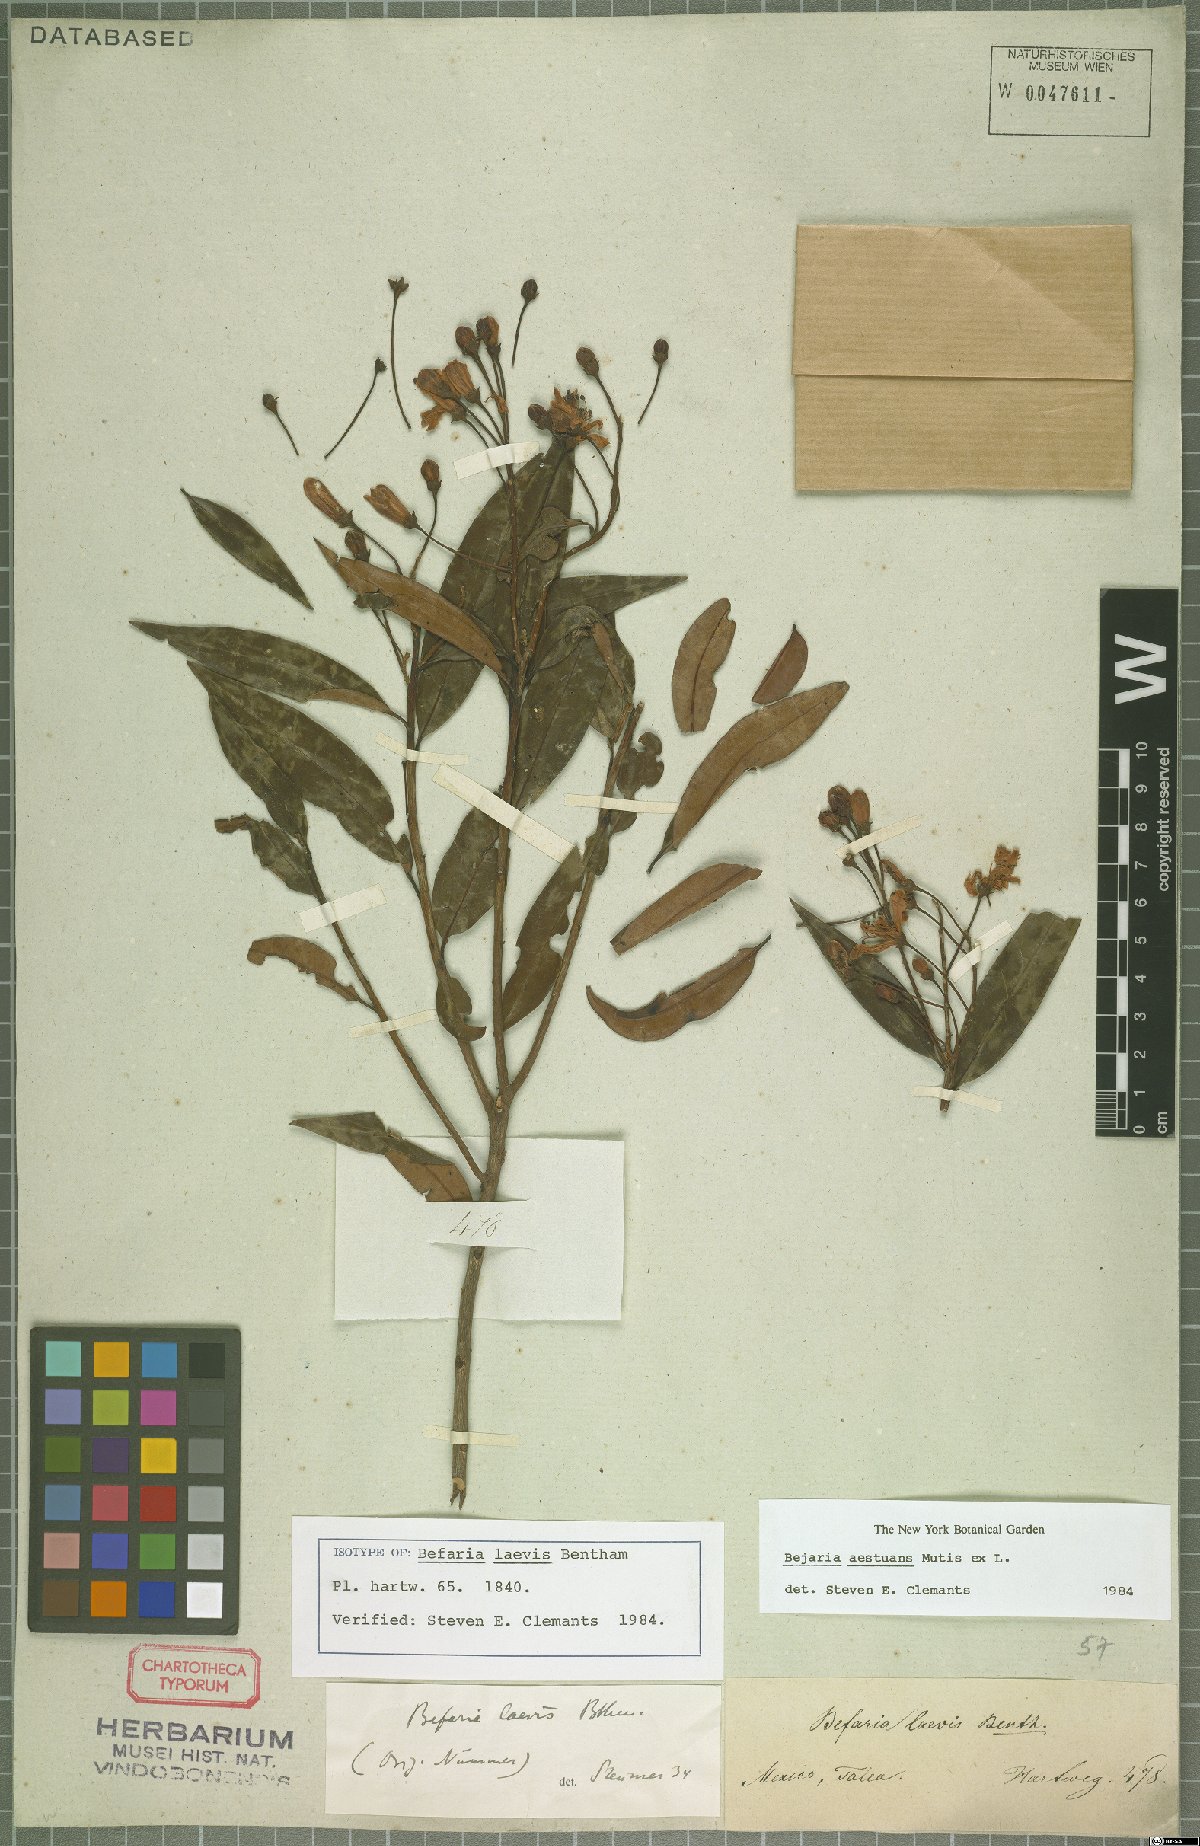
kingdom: Plantae
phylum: Tracheophyta
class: Magnoliopsida
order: Ericales
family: Ericaceae
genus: Bejaria
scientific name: Bejaria aestuans
